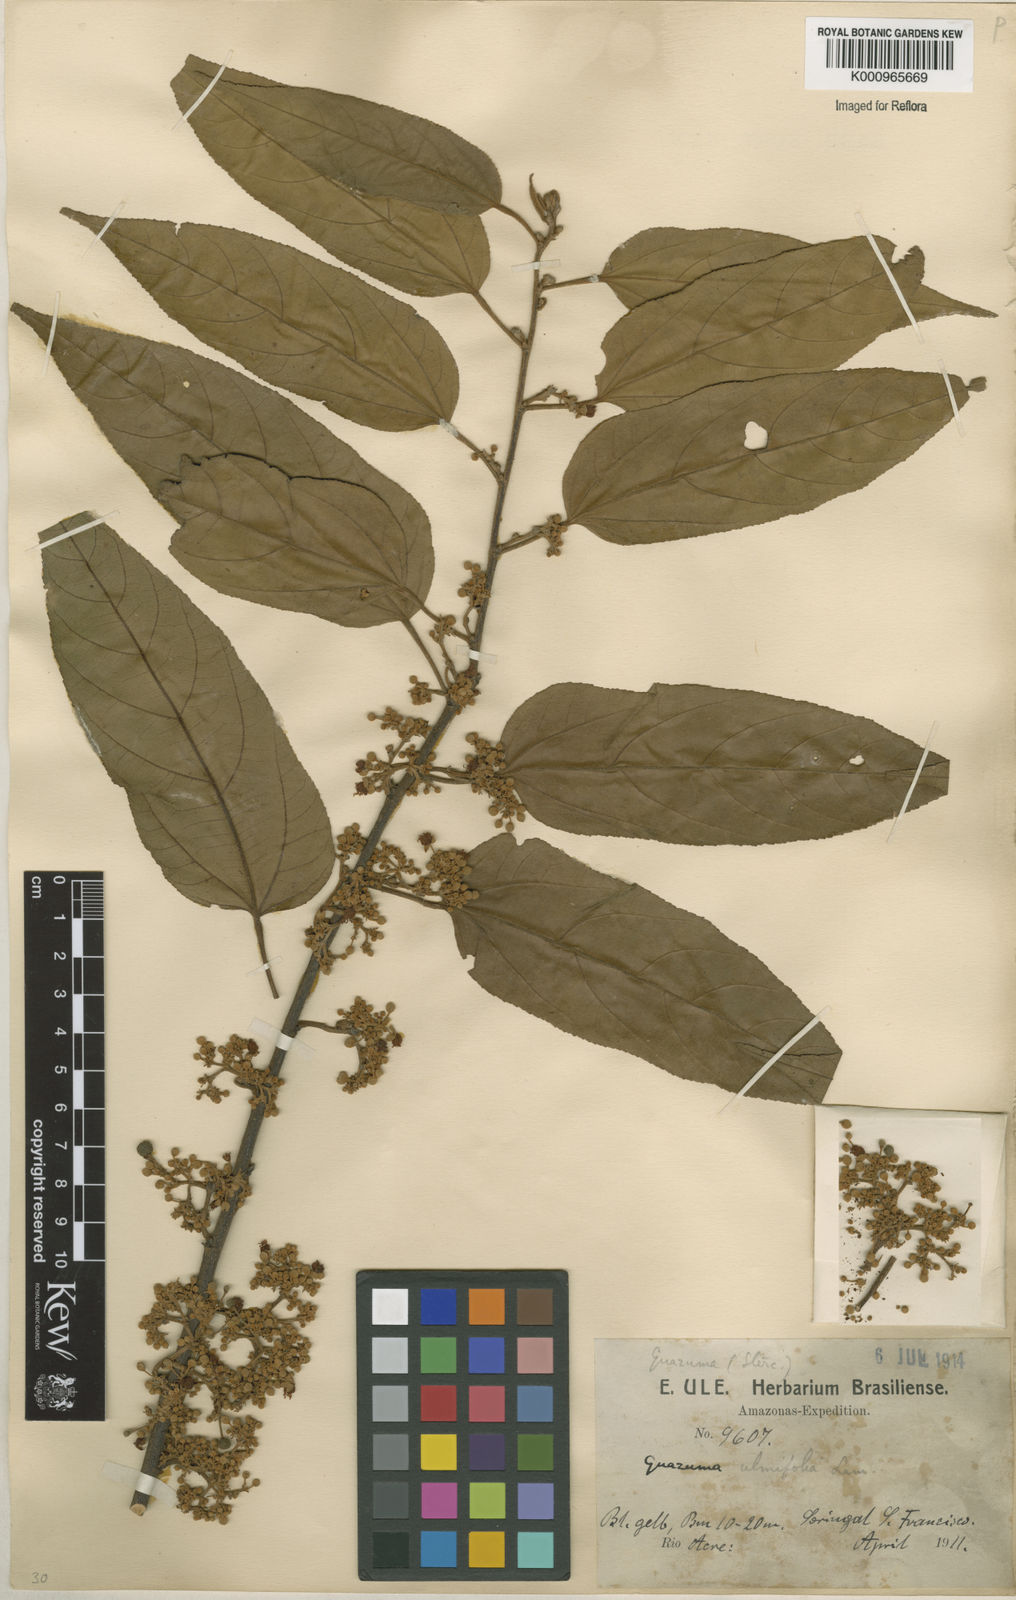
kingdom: Plantae
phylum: Tracheophyta
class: Magnoliopsida
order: Malvales
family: Malvaceae
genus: Guazuma
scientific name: Guazuma ulmifolia
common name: Bastard-cedar
